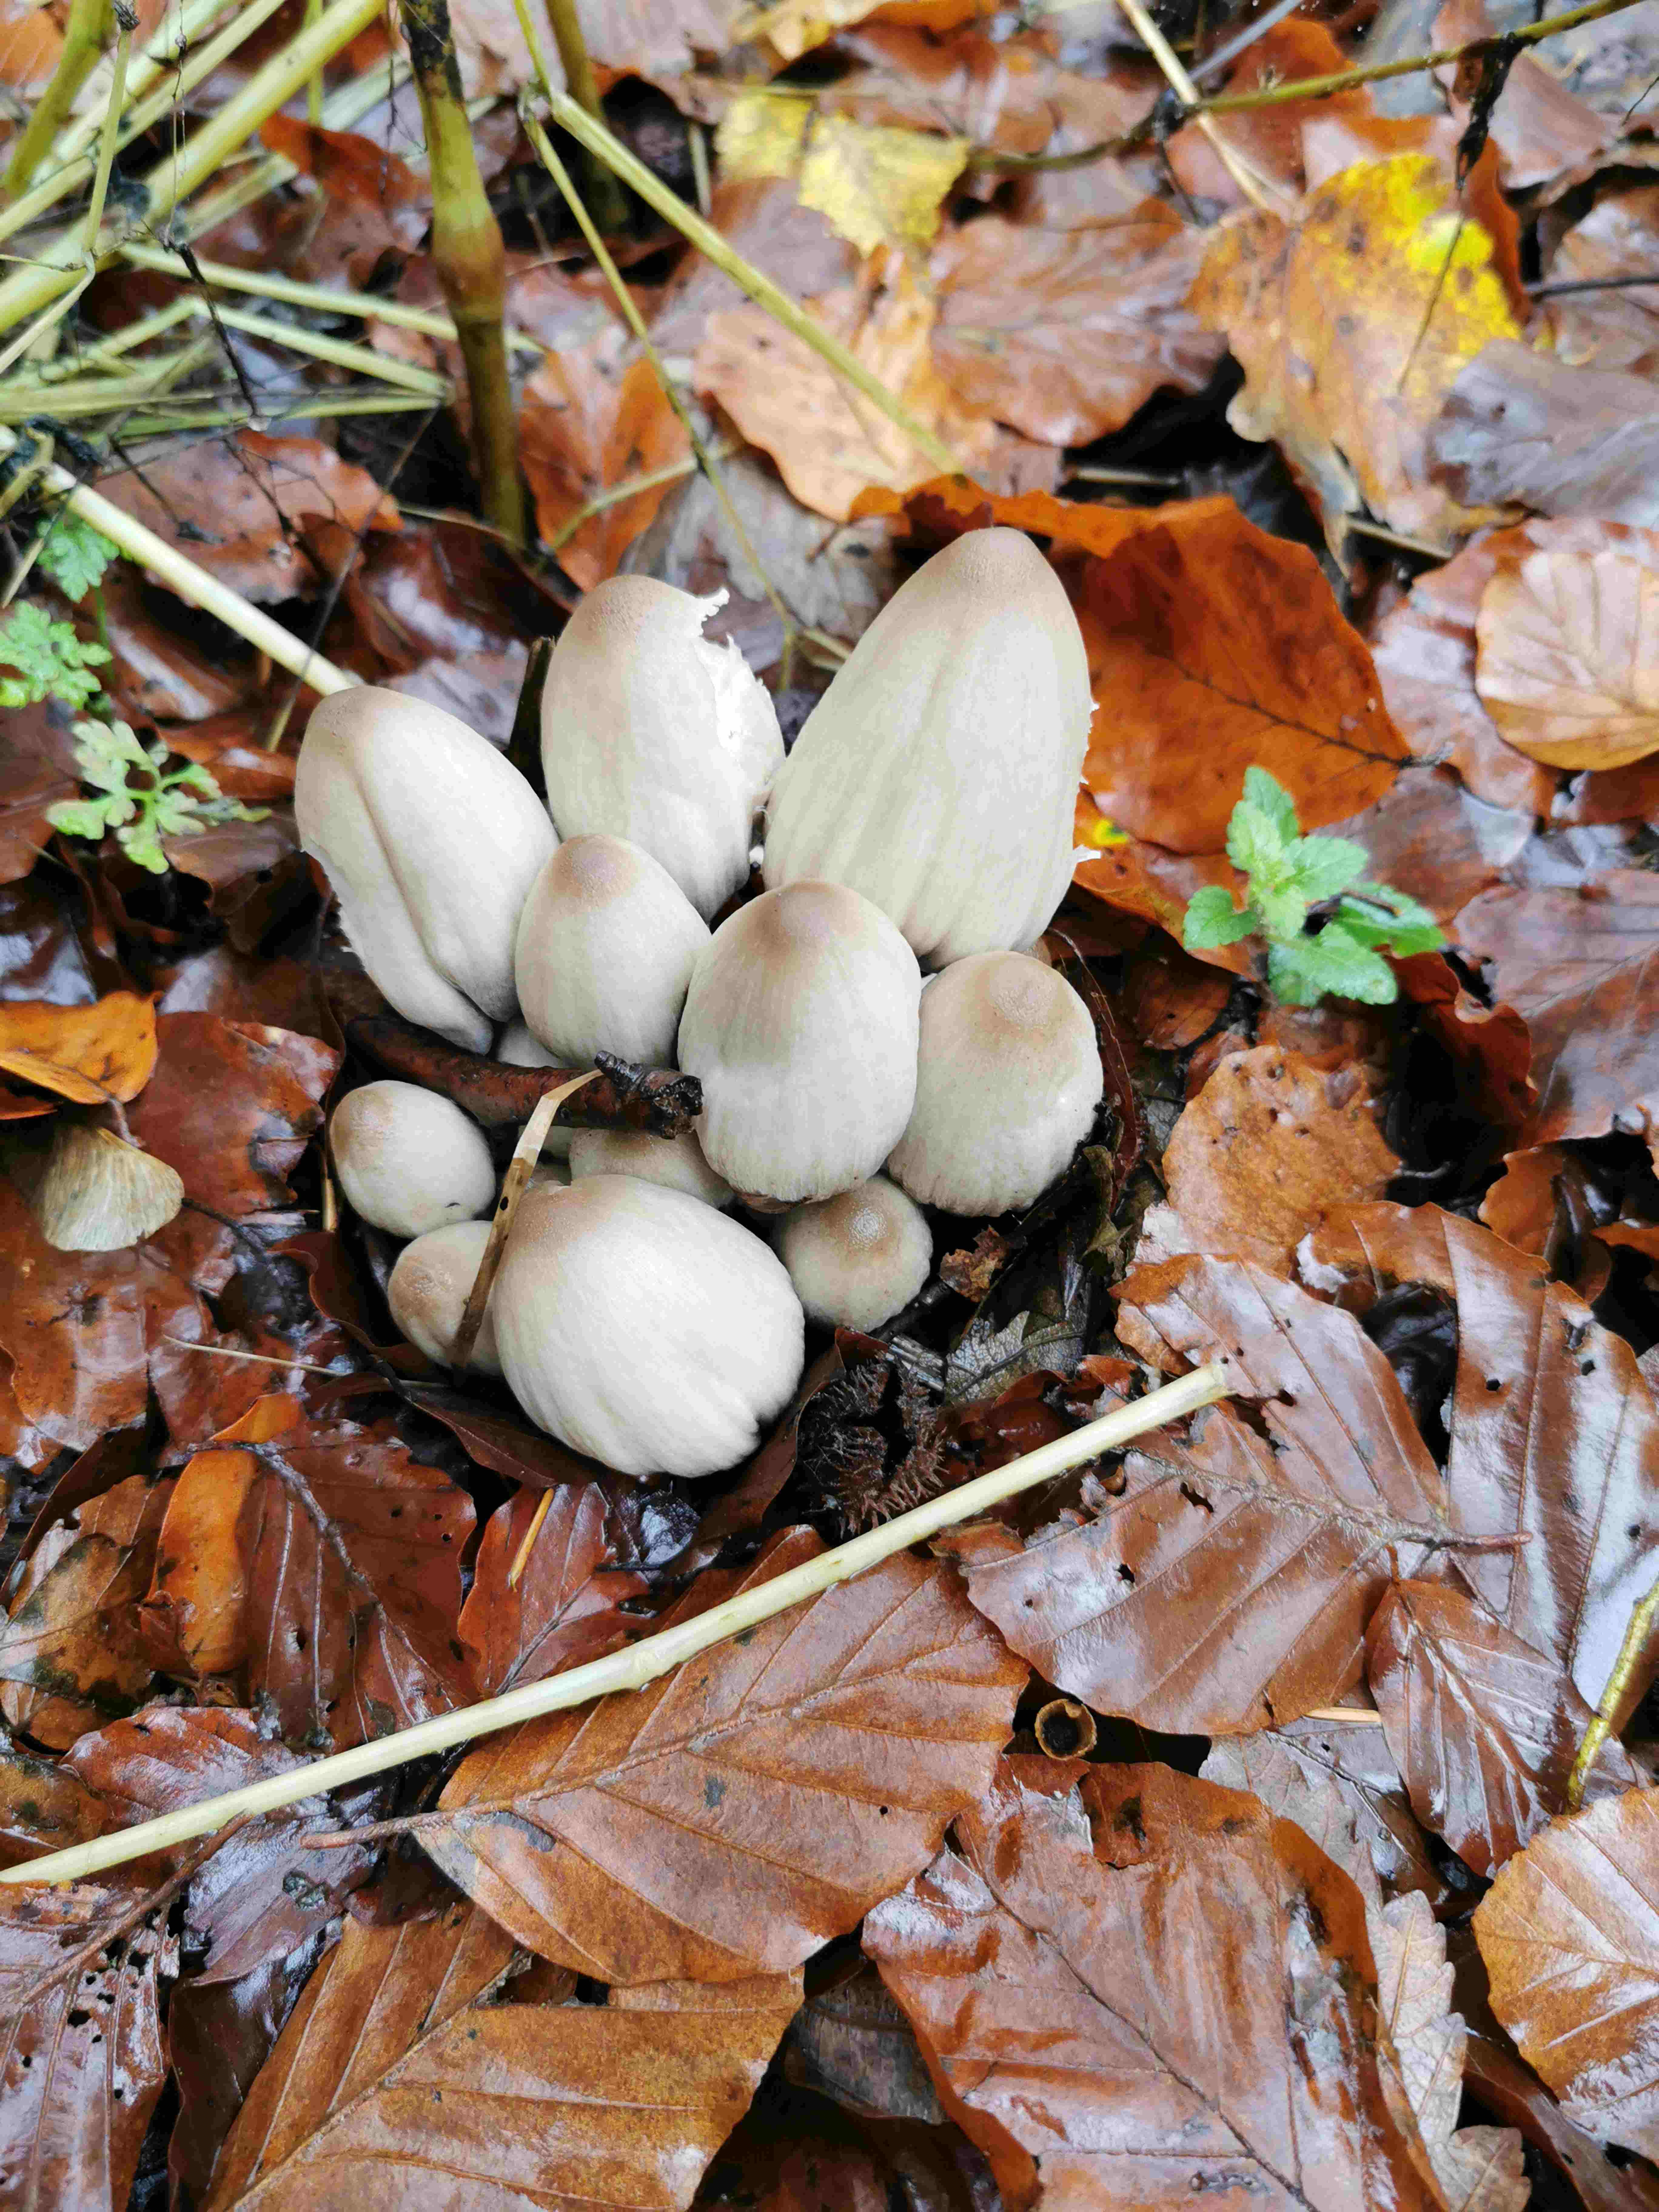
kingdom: Fungi
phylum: Basidiomycota
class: Agaricomycetes
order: Agaricales
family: Psathyrellaceae
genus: Coprinopsis
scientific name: Coprinopsis
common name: blækhat
